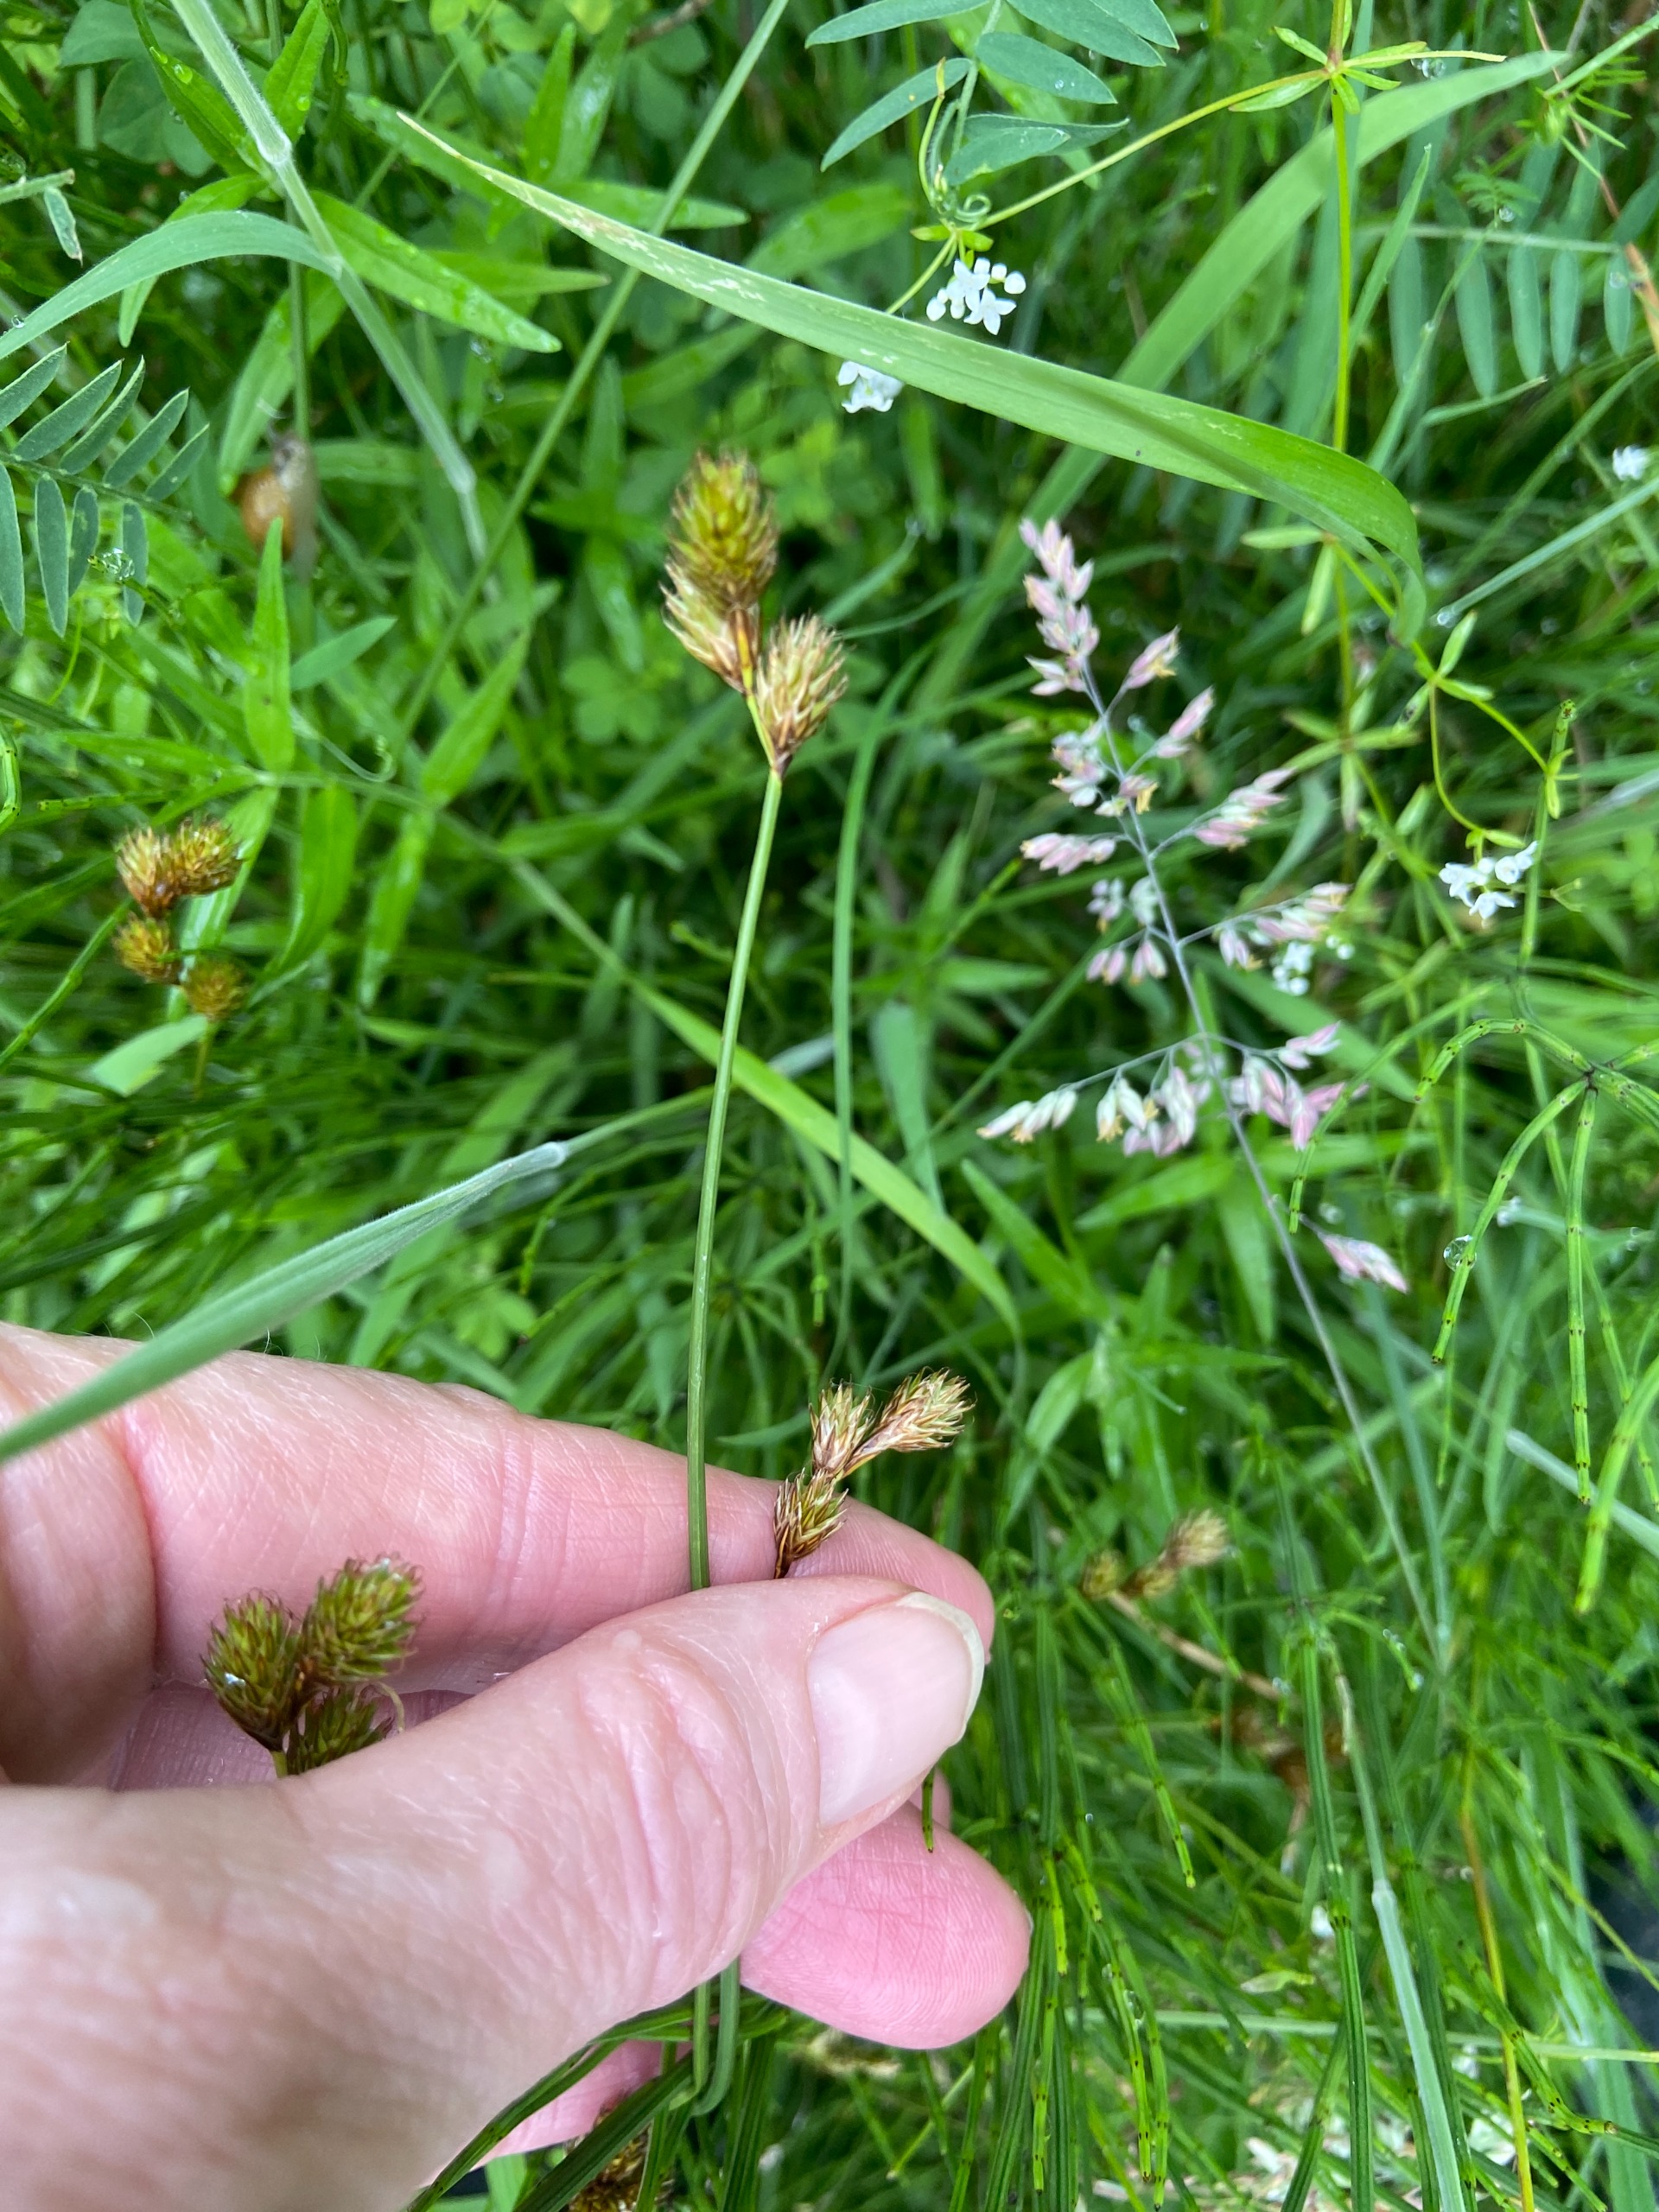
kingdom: Plantae
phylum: Tracheophyta
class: Liliopsida
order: Poales
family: Cyperaceae
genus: Carex
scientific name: Carex leporina
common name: Hare-star
